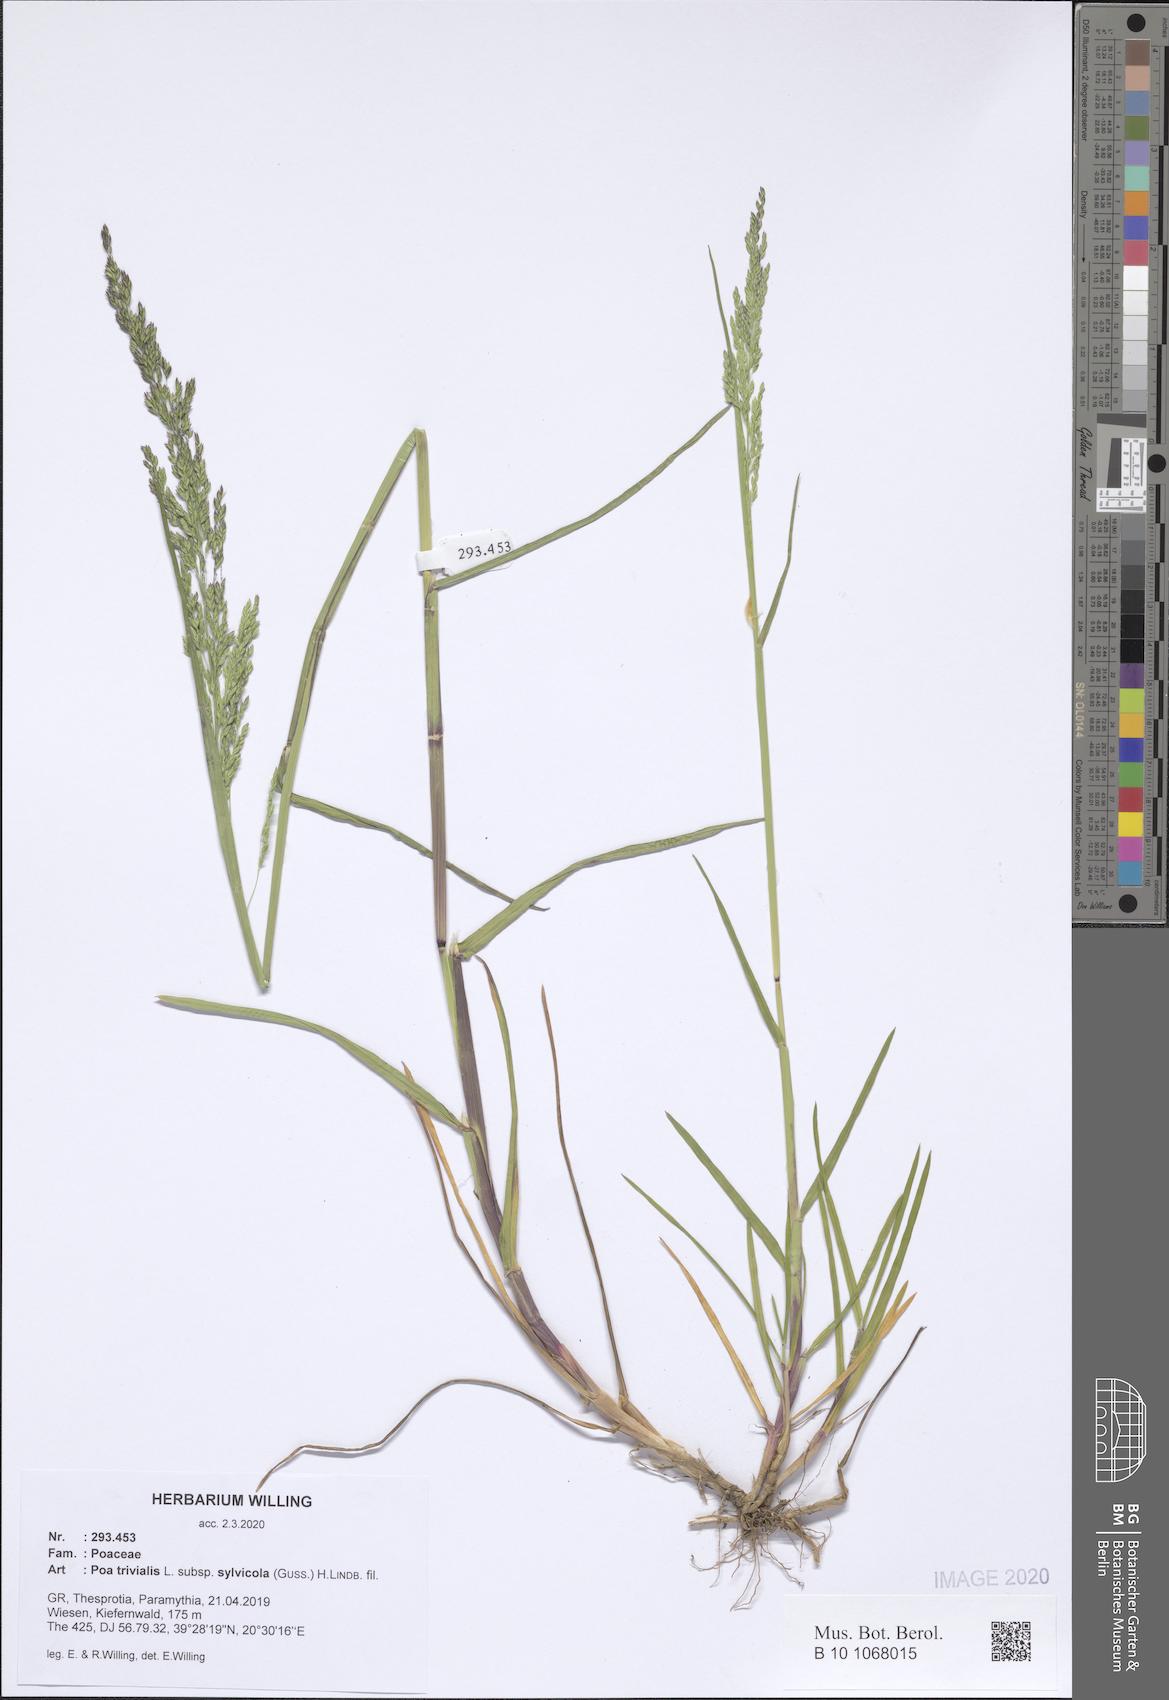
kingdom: Plantae
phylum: Tracheophyta
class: Liliopsida
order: Poales
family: Poaceae
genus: Poa
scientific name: Poa trivialis
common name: Rough bluegrass
